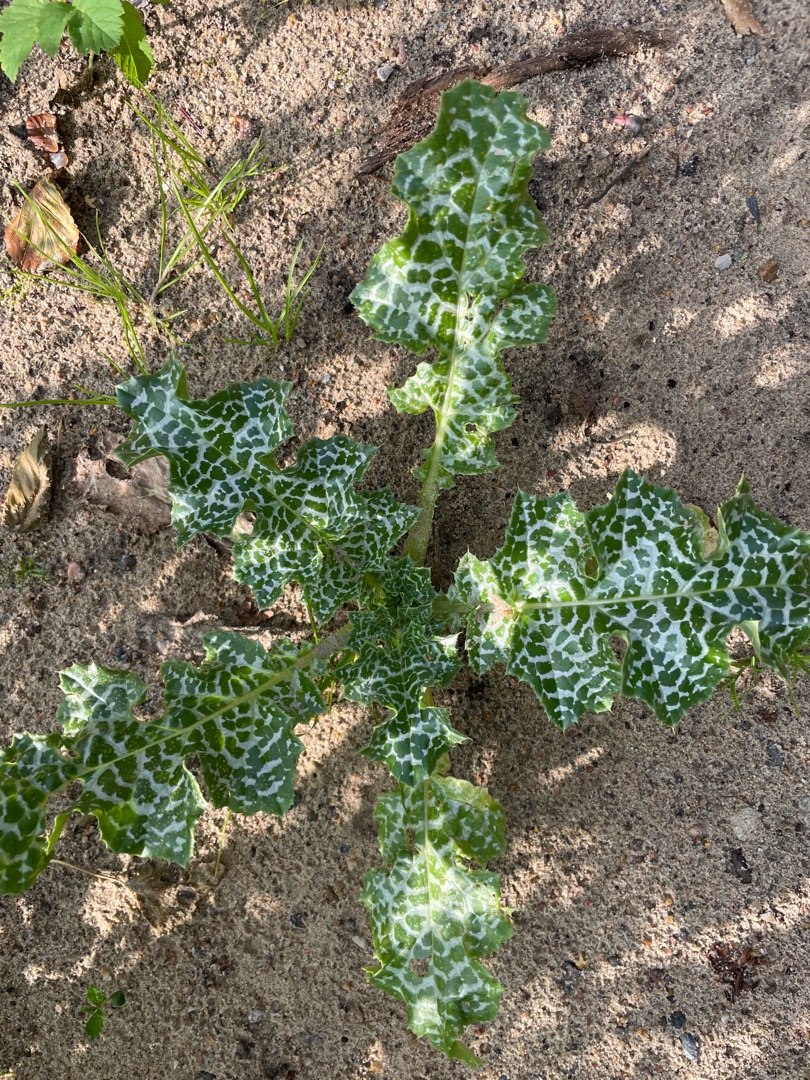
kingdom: Plantae
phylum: Tracheophyta
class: Magnoliopsida
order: Asterales
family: Asteraceae
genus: Silybum
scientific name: Silybum marianum
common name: Marietidsel
